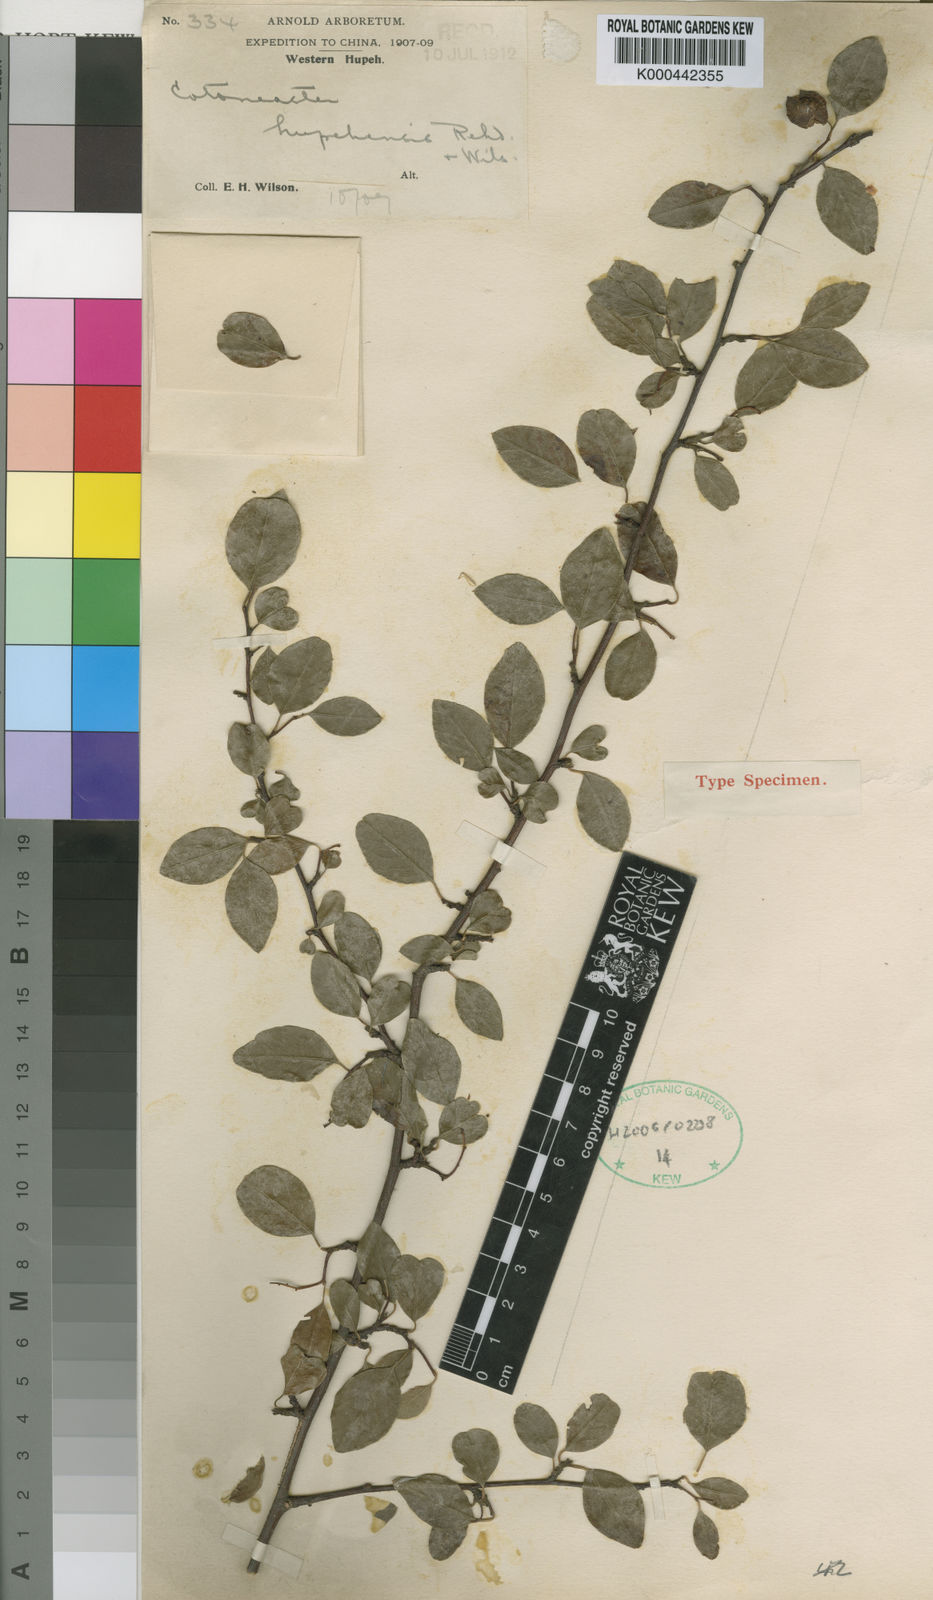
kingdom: Plantae
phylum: Tracheophyta
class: Magnoliopsida
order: Rosales
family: Rosaceae
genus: Cotoneaster
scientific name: Cotoneaster sylvestrii
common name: Rose
